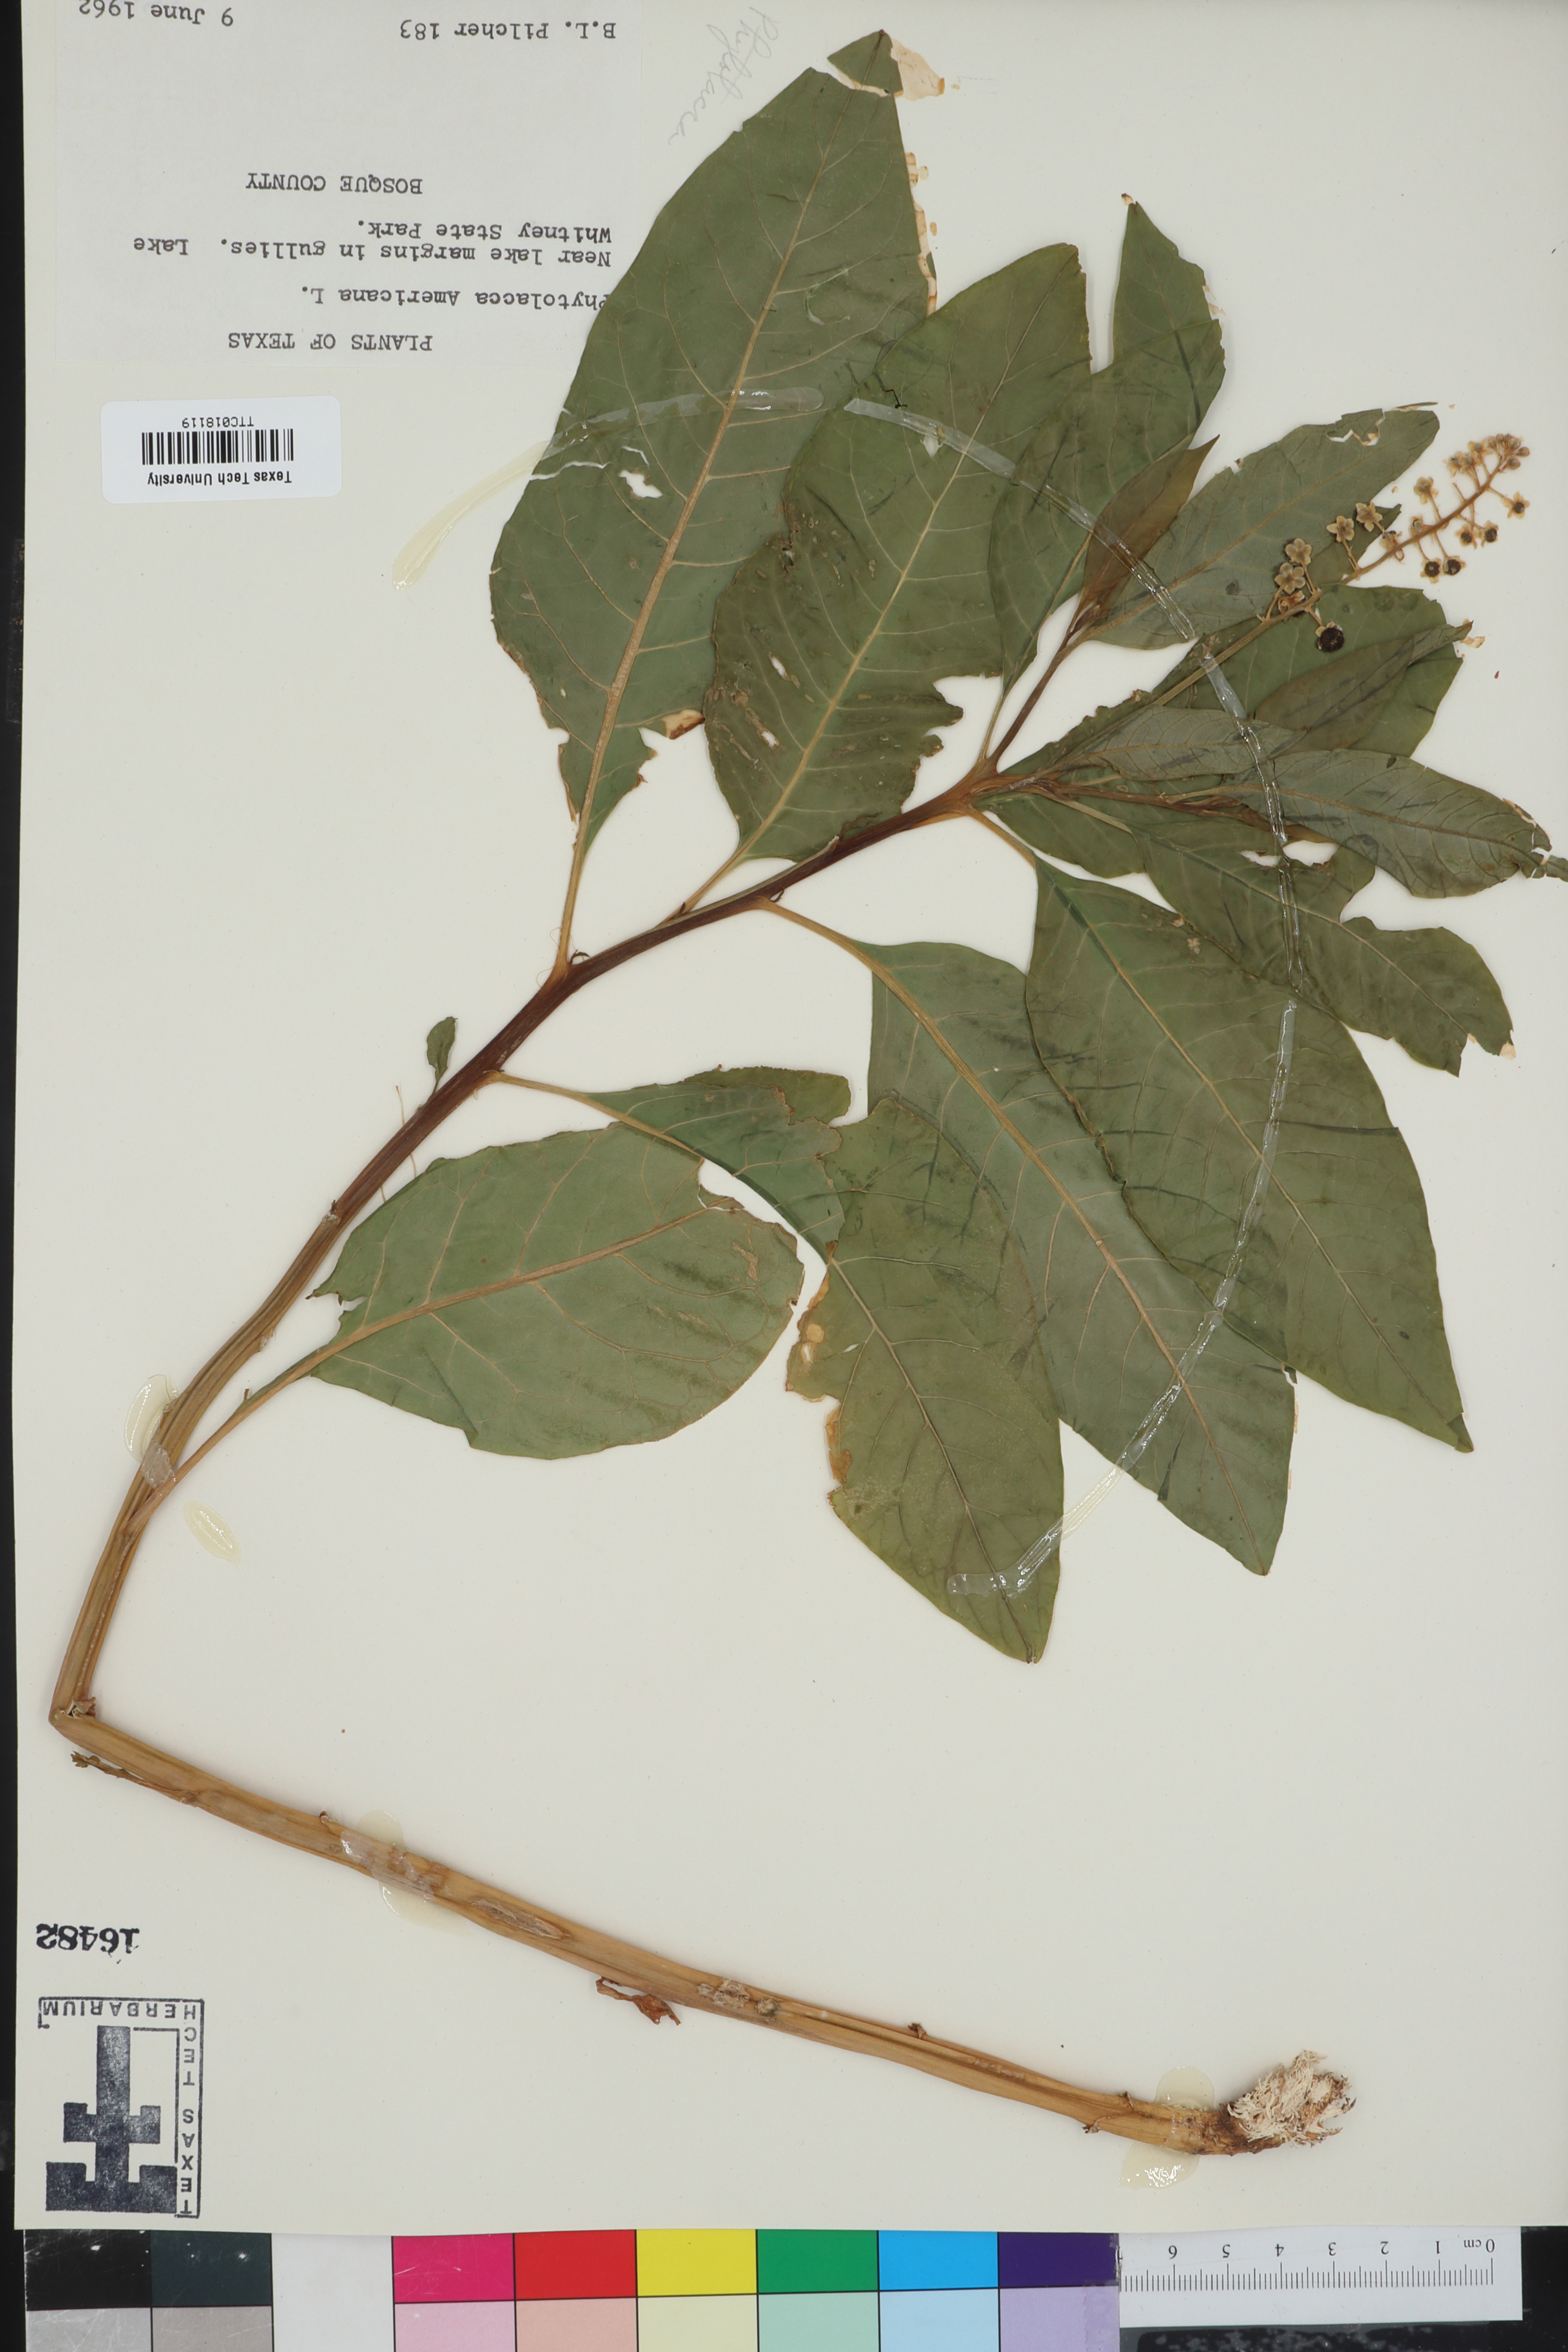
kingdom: Plantae
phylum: Tracheophyta
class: Magnoliopsida
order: Caryophyllales
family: Phytolaccaceae
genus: Phytolacca
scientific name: Phytolacca americana
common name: American pokeweed
